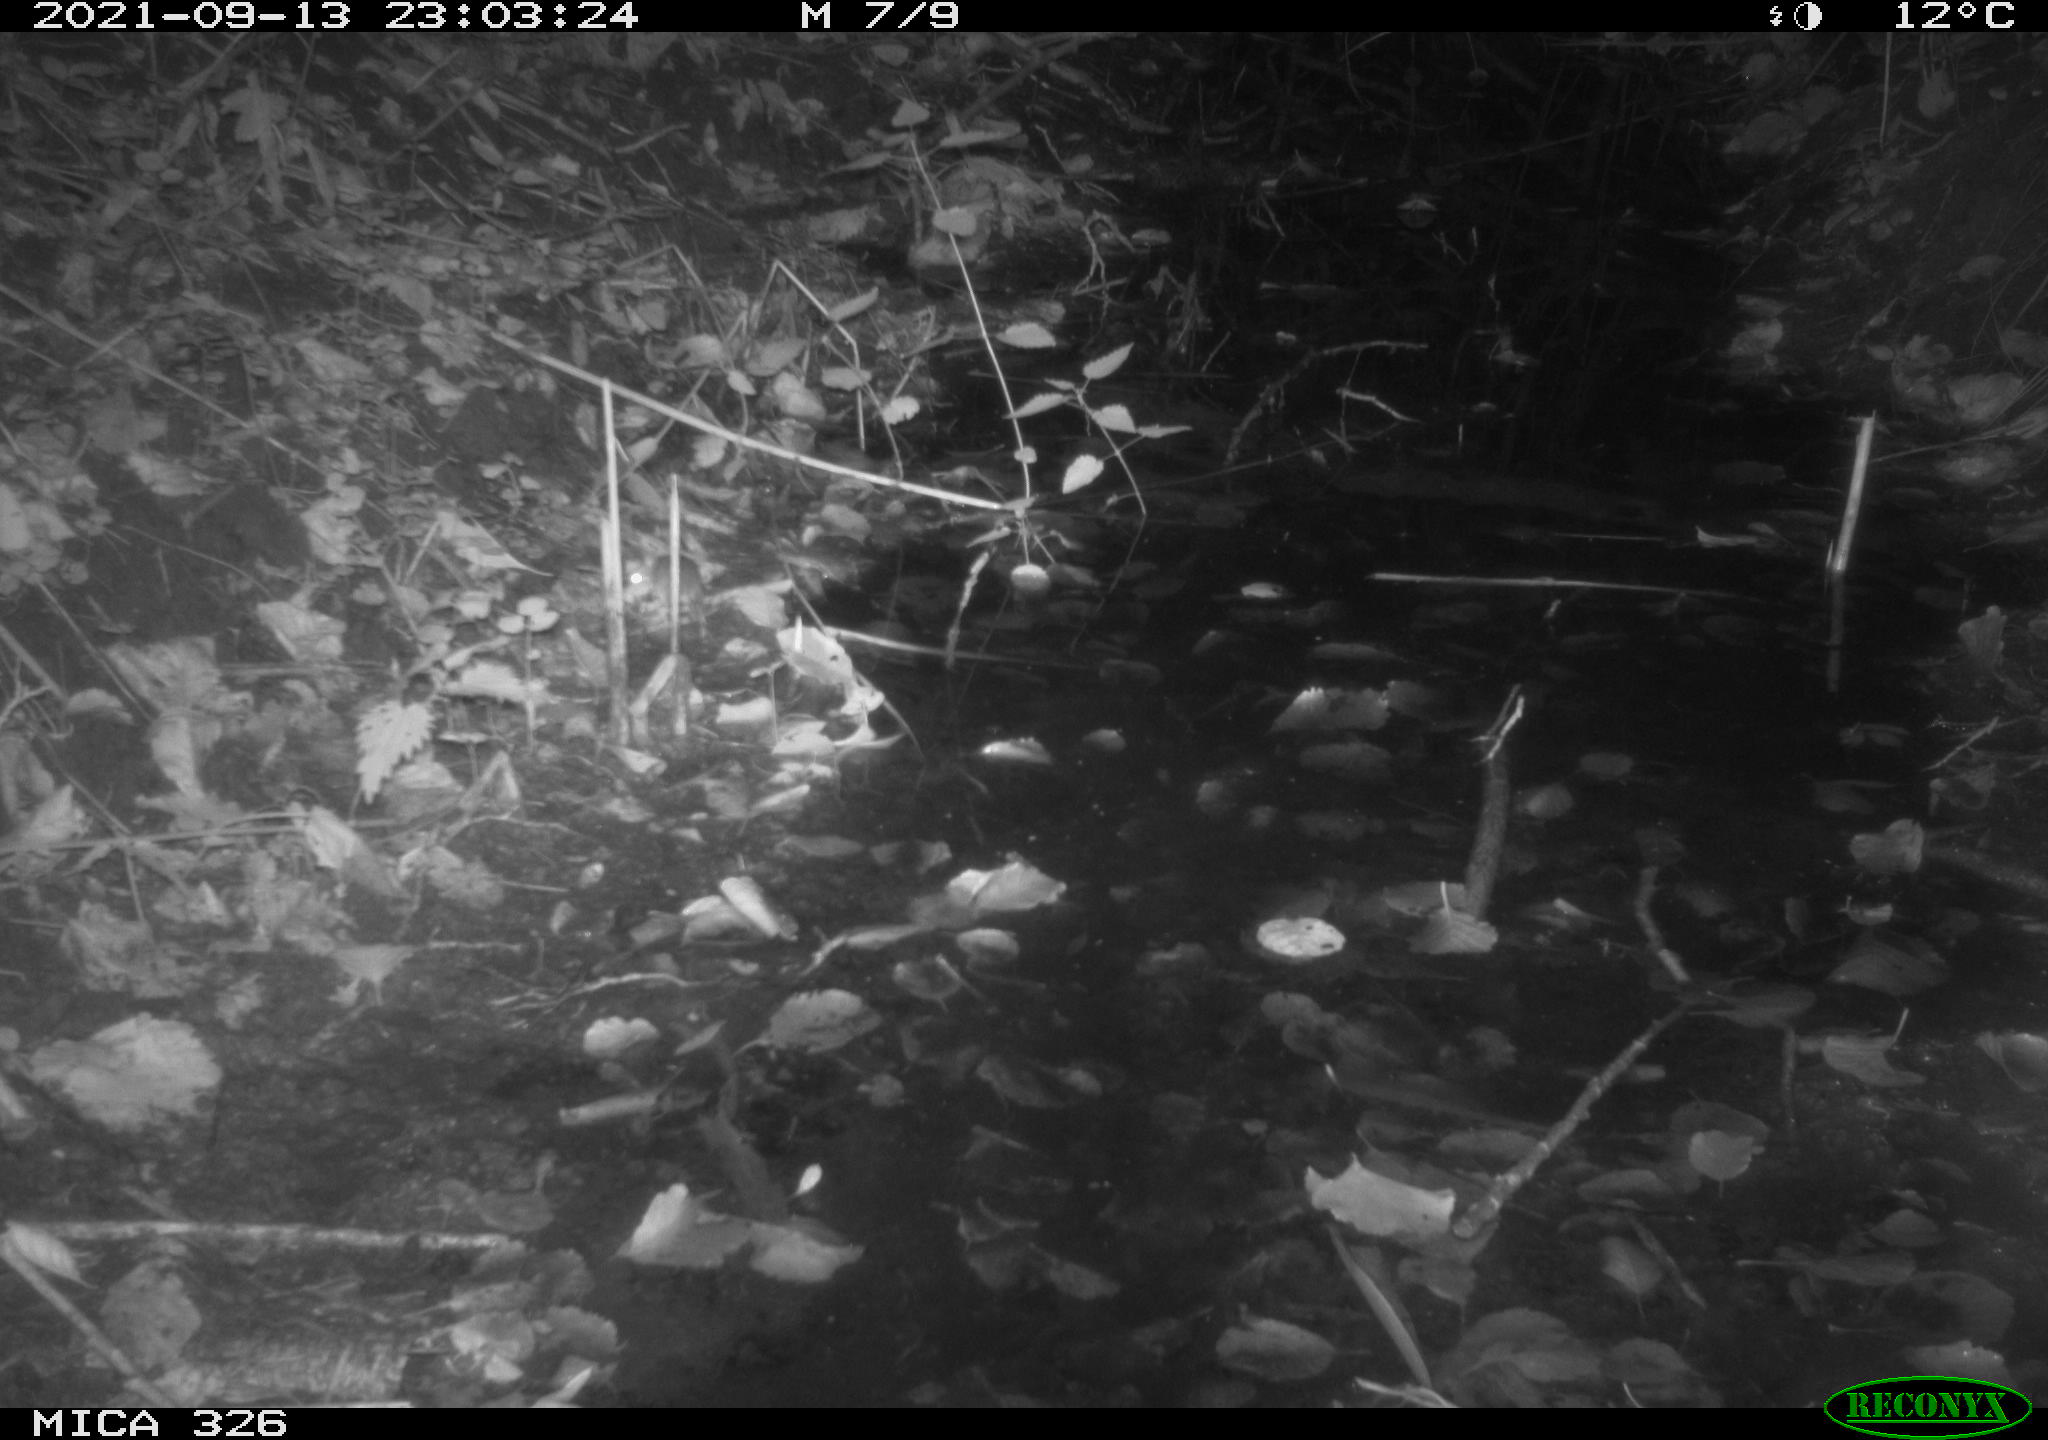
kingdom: Animalia
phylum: Chordata
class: Mammalia
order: Rodentia
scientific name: Rodentia
